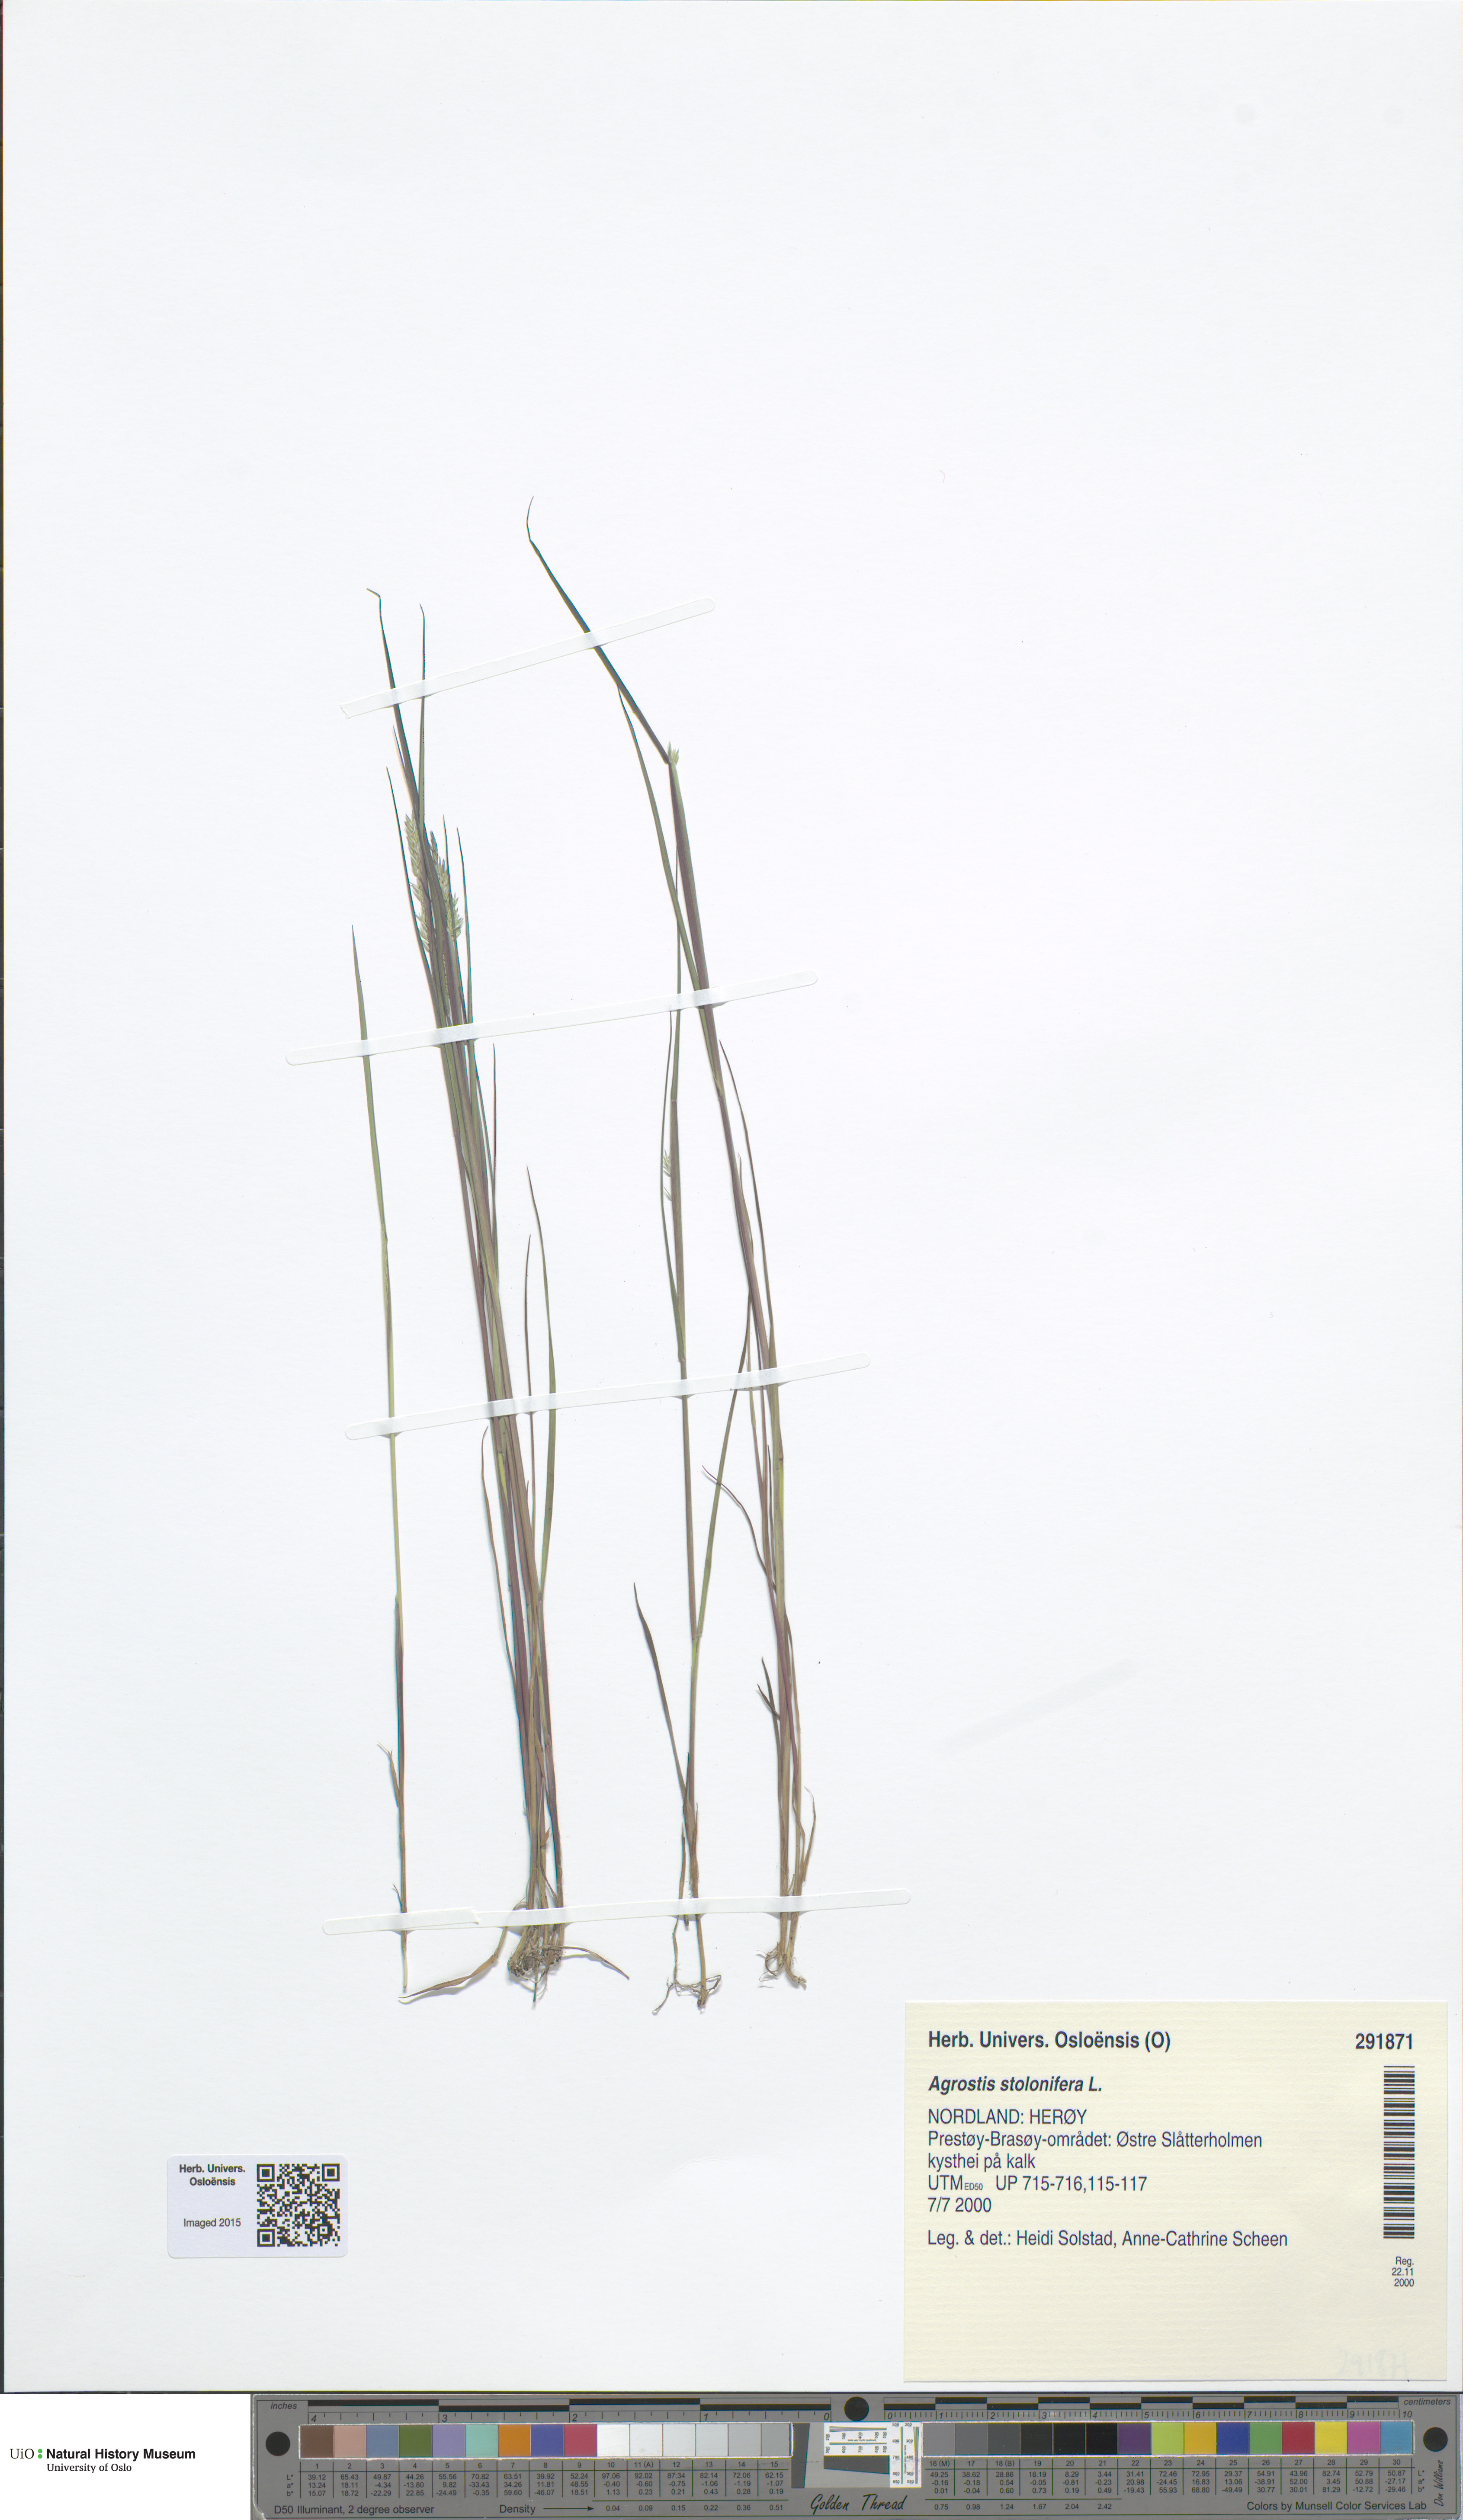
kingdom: Plantae
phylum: Tracheophyta
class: Liliopsida
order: Poales
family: Poaceae
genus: Agrostis
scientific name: Agrostis stolonifera
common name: Creeping bentgrass
